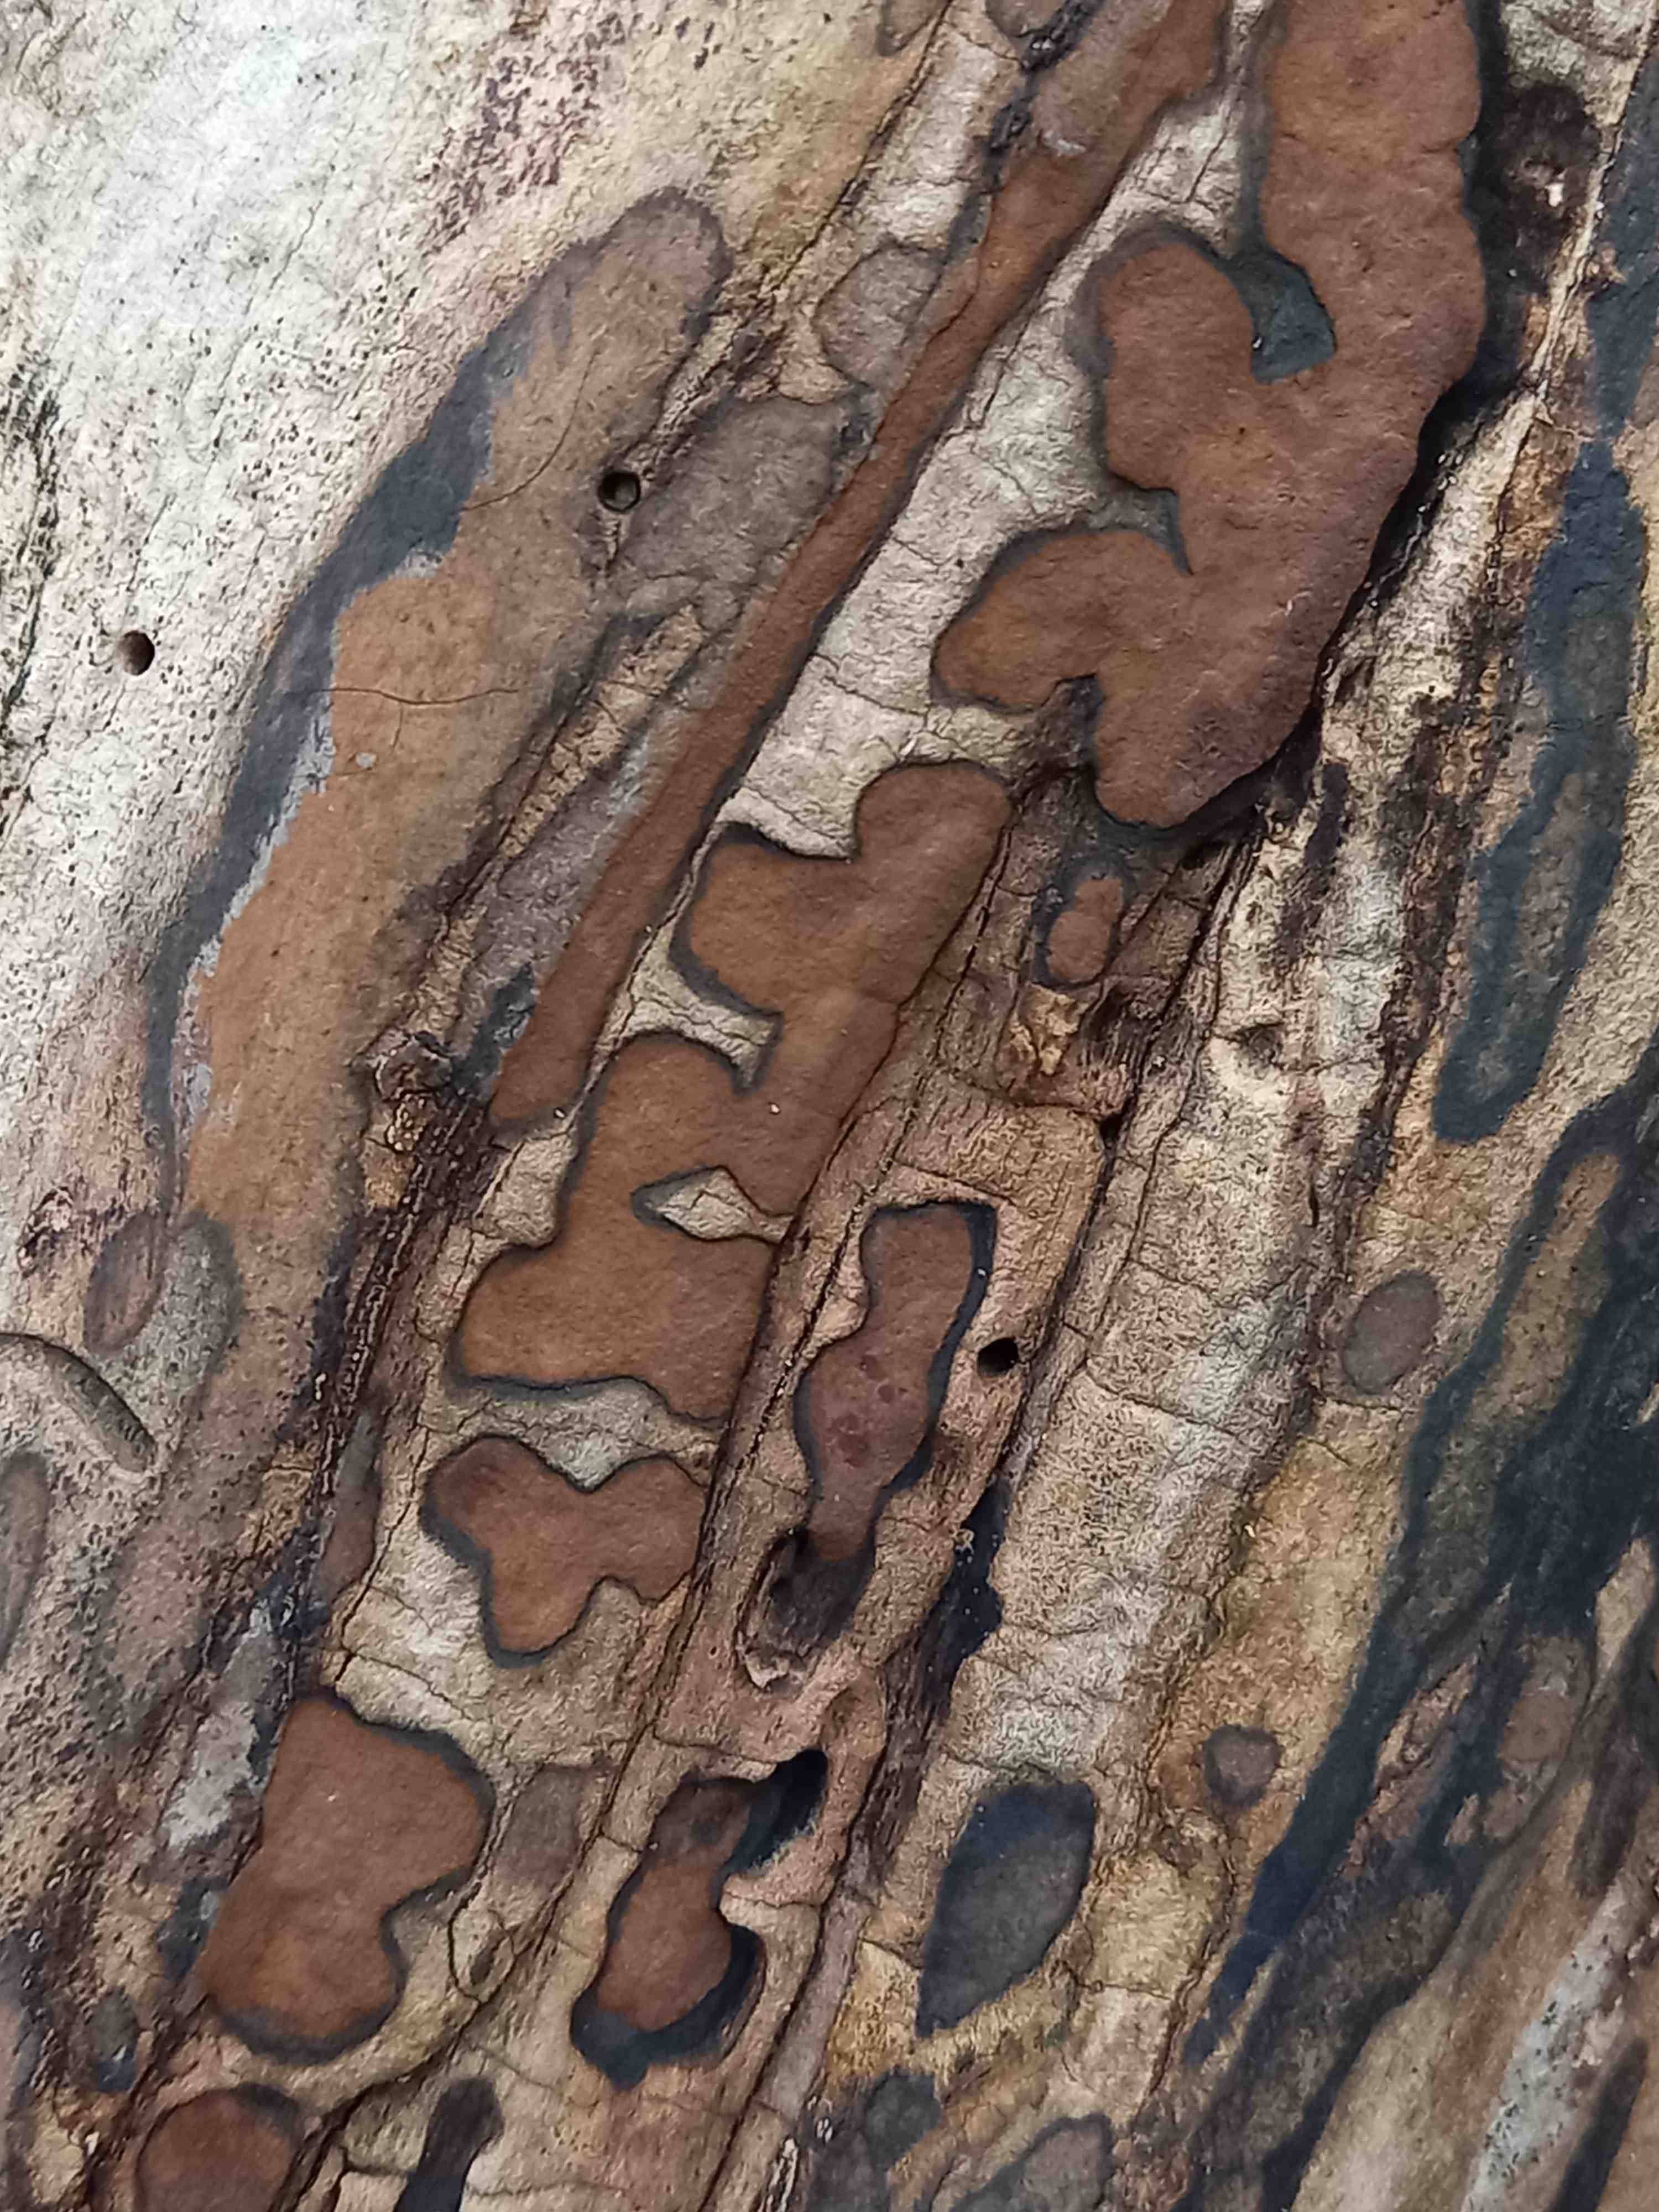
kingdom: Fungi
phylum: Ascomycota
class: Sordariomycetes
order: Xylariales
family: Hypoxylaceae
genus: Hypoxylon
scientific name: Hypoxylon petriniae
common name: nedsænket kulbær
